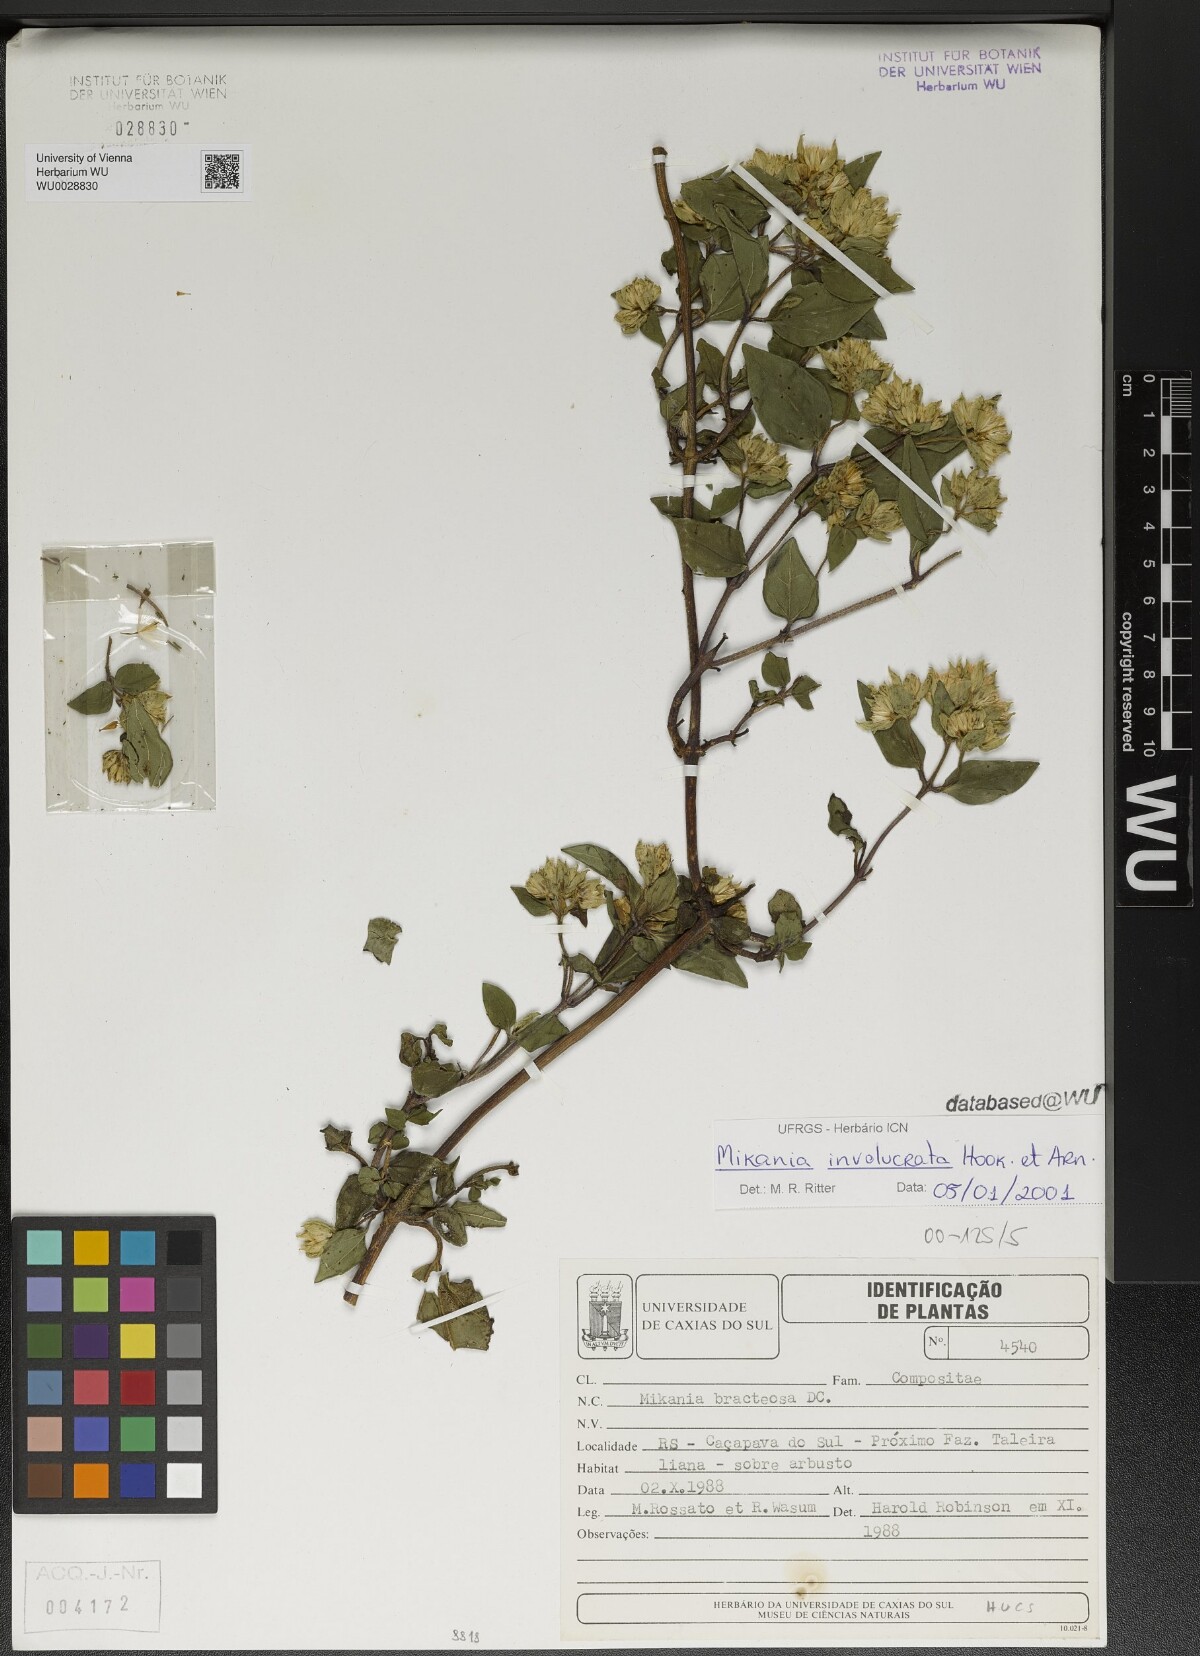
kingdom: Plantae
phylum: Tracheophyta
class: Magnoliopsida
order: Asterales
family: Asteraceae
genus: Mikania
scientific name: Mikania involucrata
